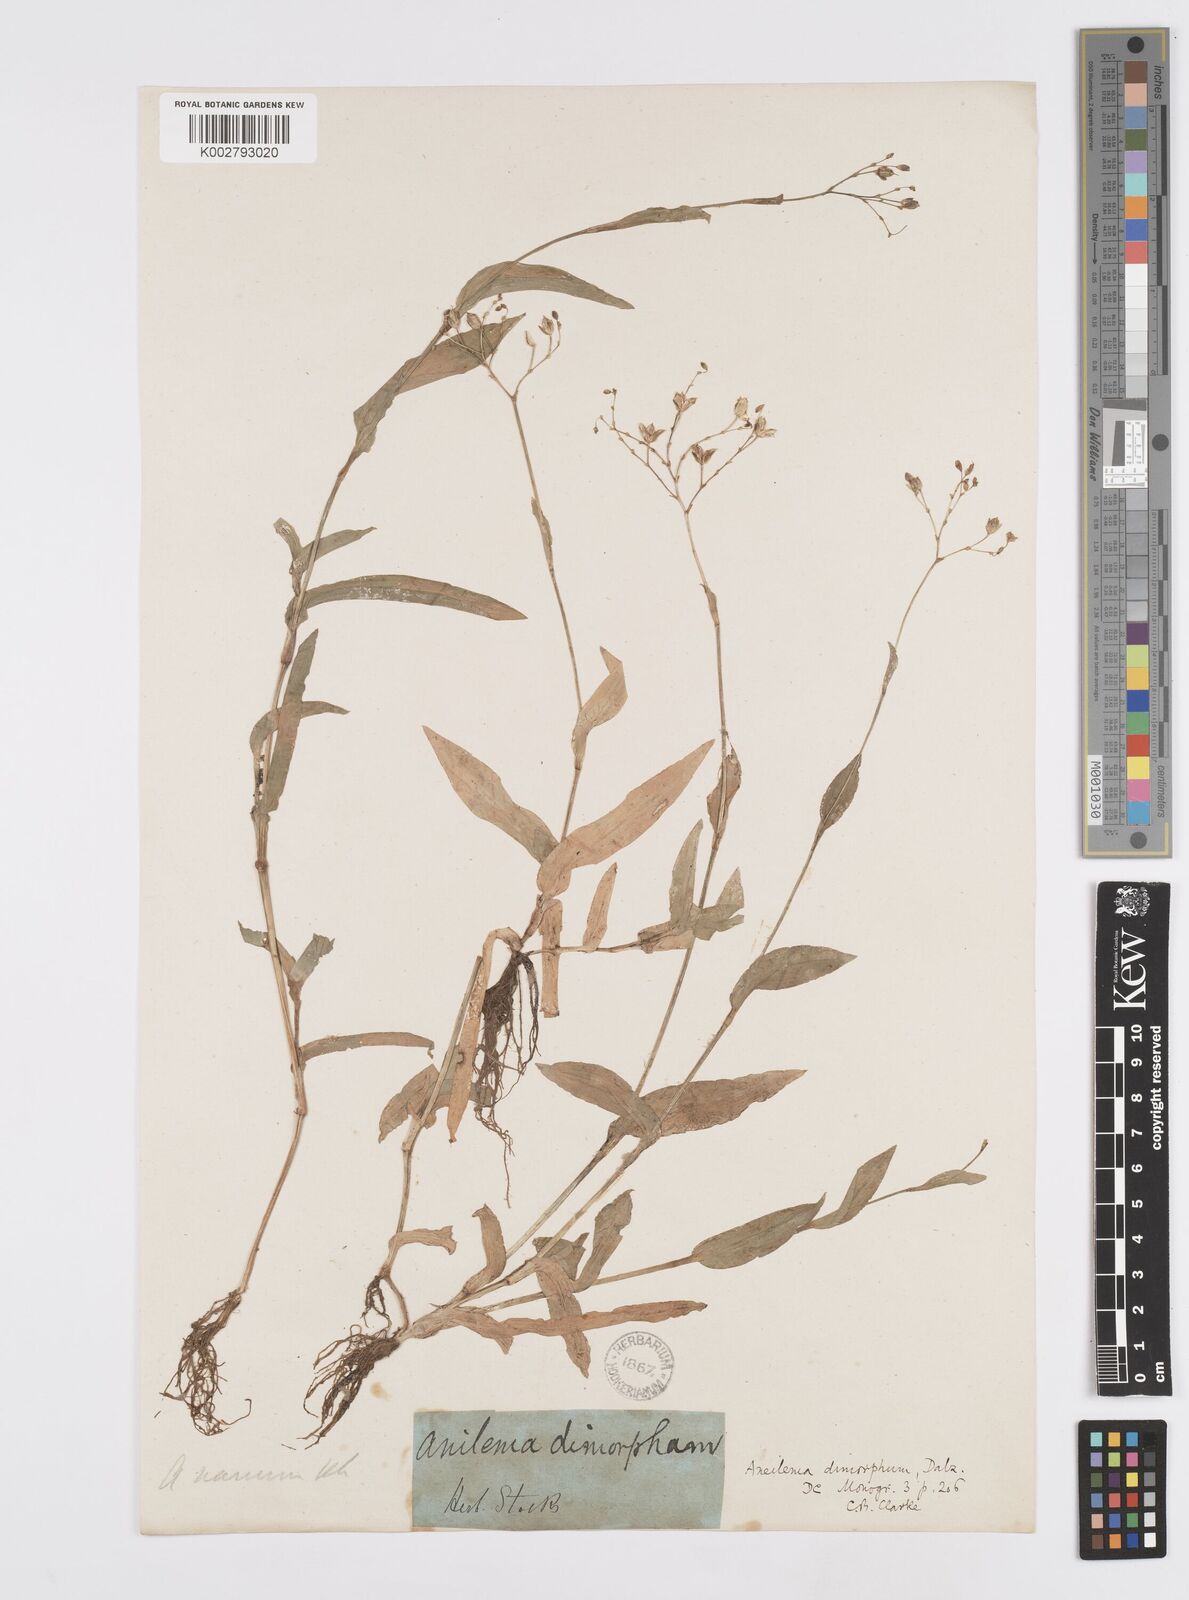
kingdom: Plantae
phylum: Tracheophyta
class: Liliopsida
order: Commelinales
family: Commelinaceae
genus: Murdannia
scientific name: Murdannia dimorpha
